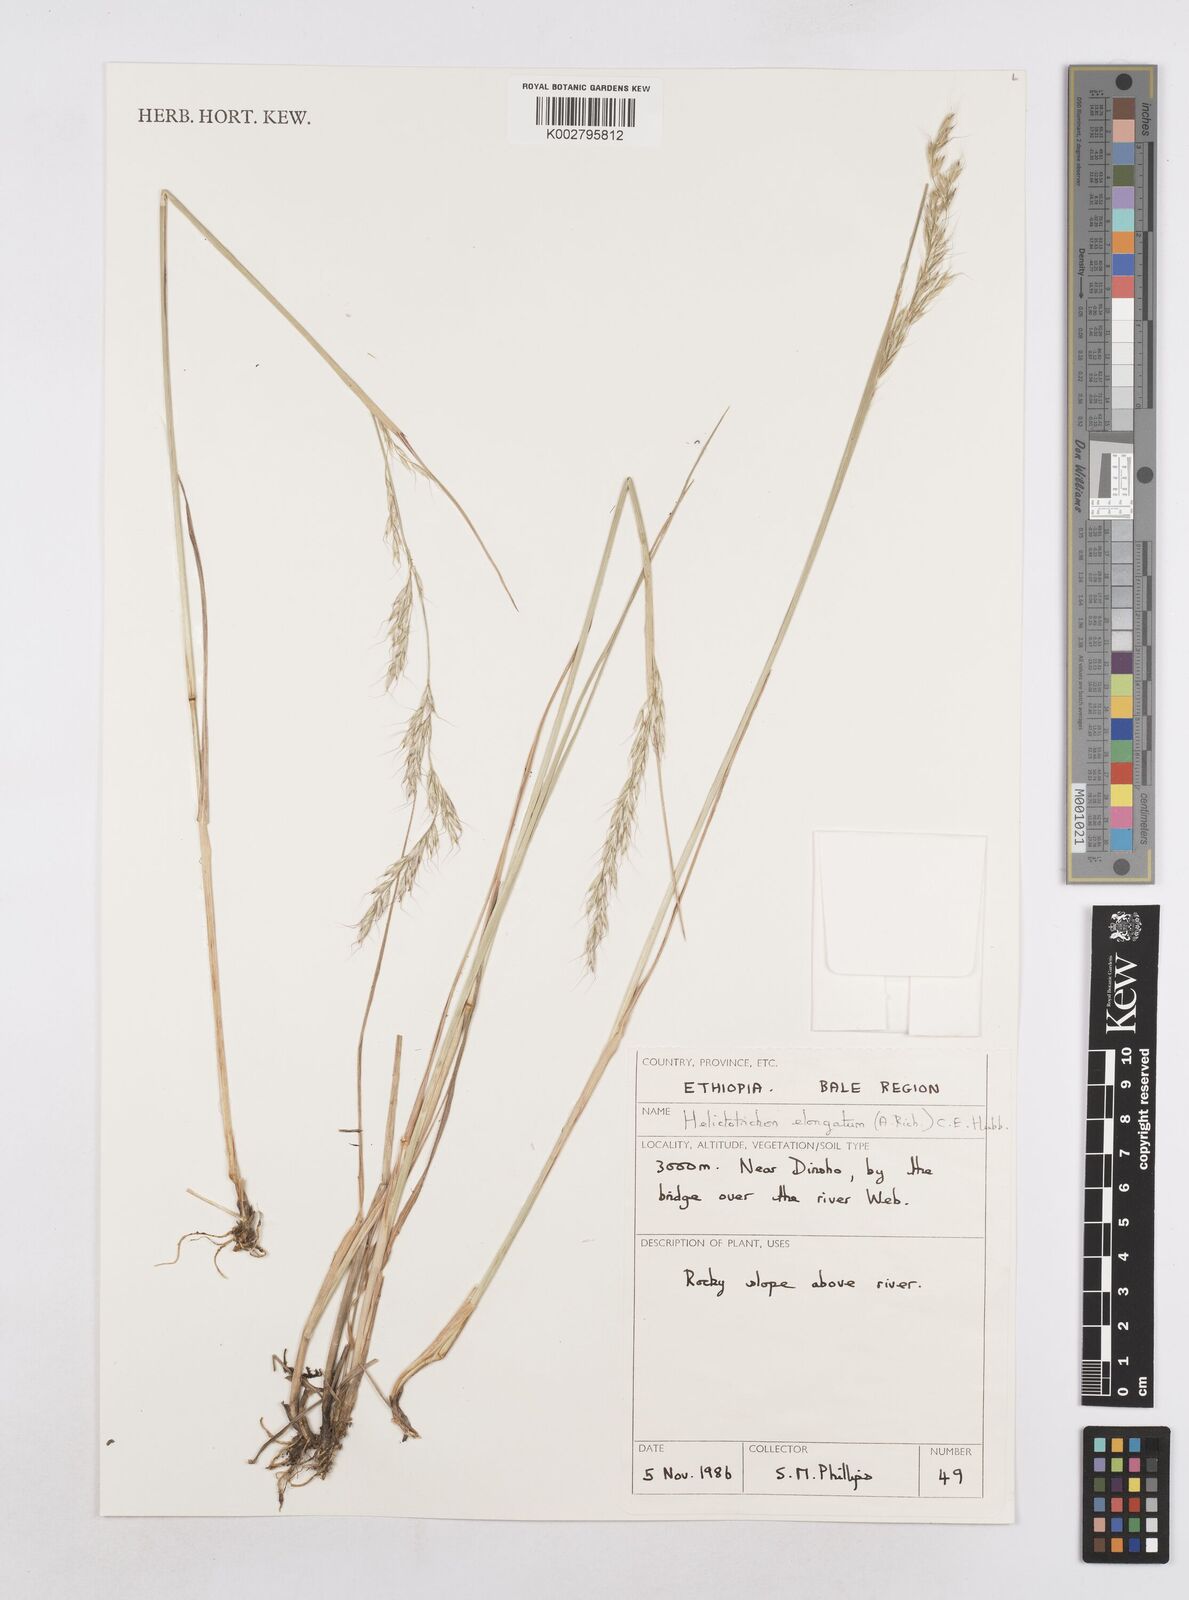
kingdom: Plantae
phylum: Tracheophyta
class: Liliopsida
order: Poales
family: Poaceae
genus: Trisetopsis
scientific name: Trisetopsis elongata
